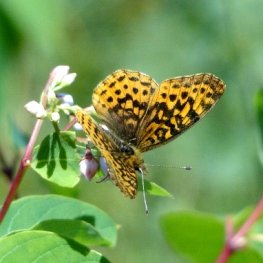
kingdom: Animalia
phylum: Arthropoda
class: Insecta
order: Lepidoptera
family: Nymphalidae
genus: Clossiana
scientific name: Clossiana toddi
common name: Meadow Fritillary
